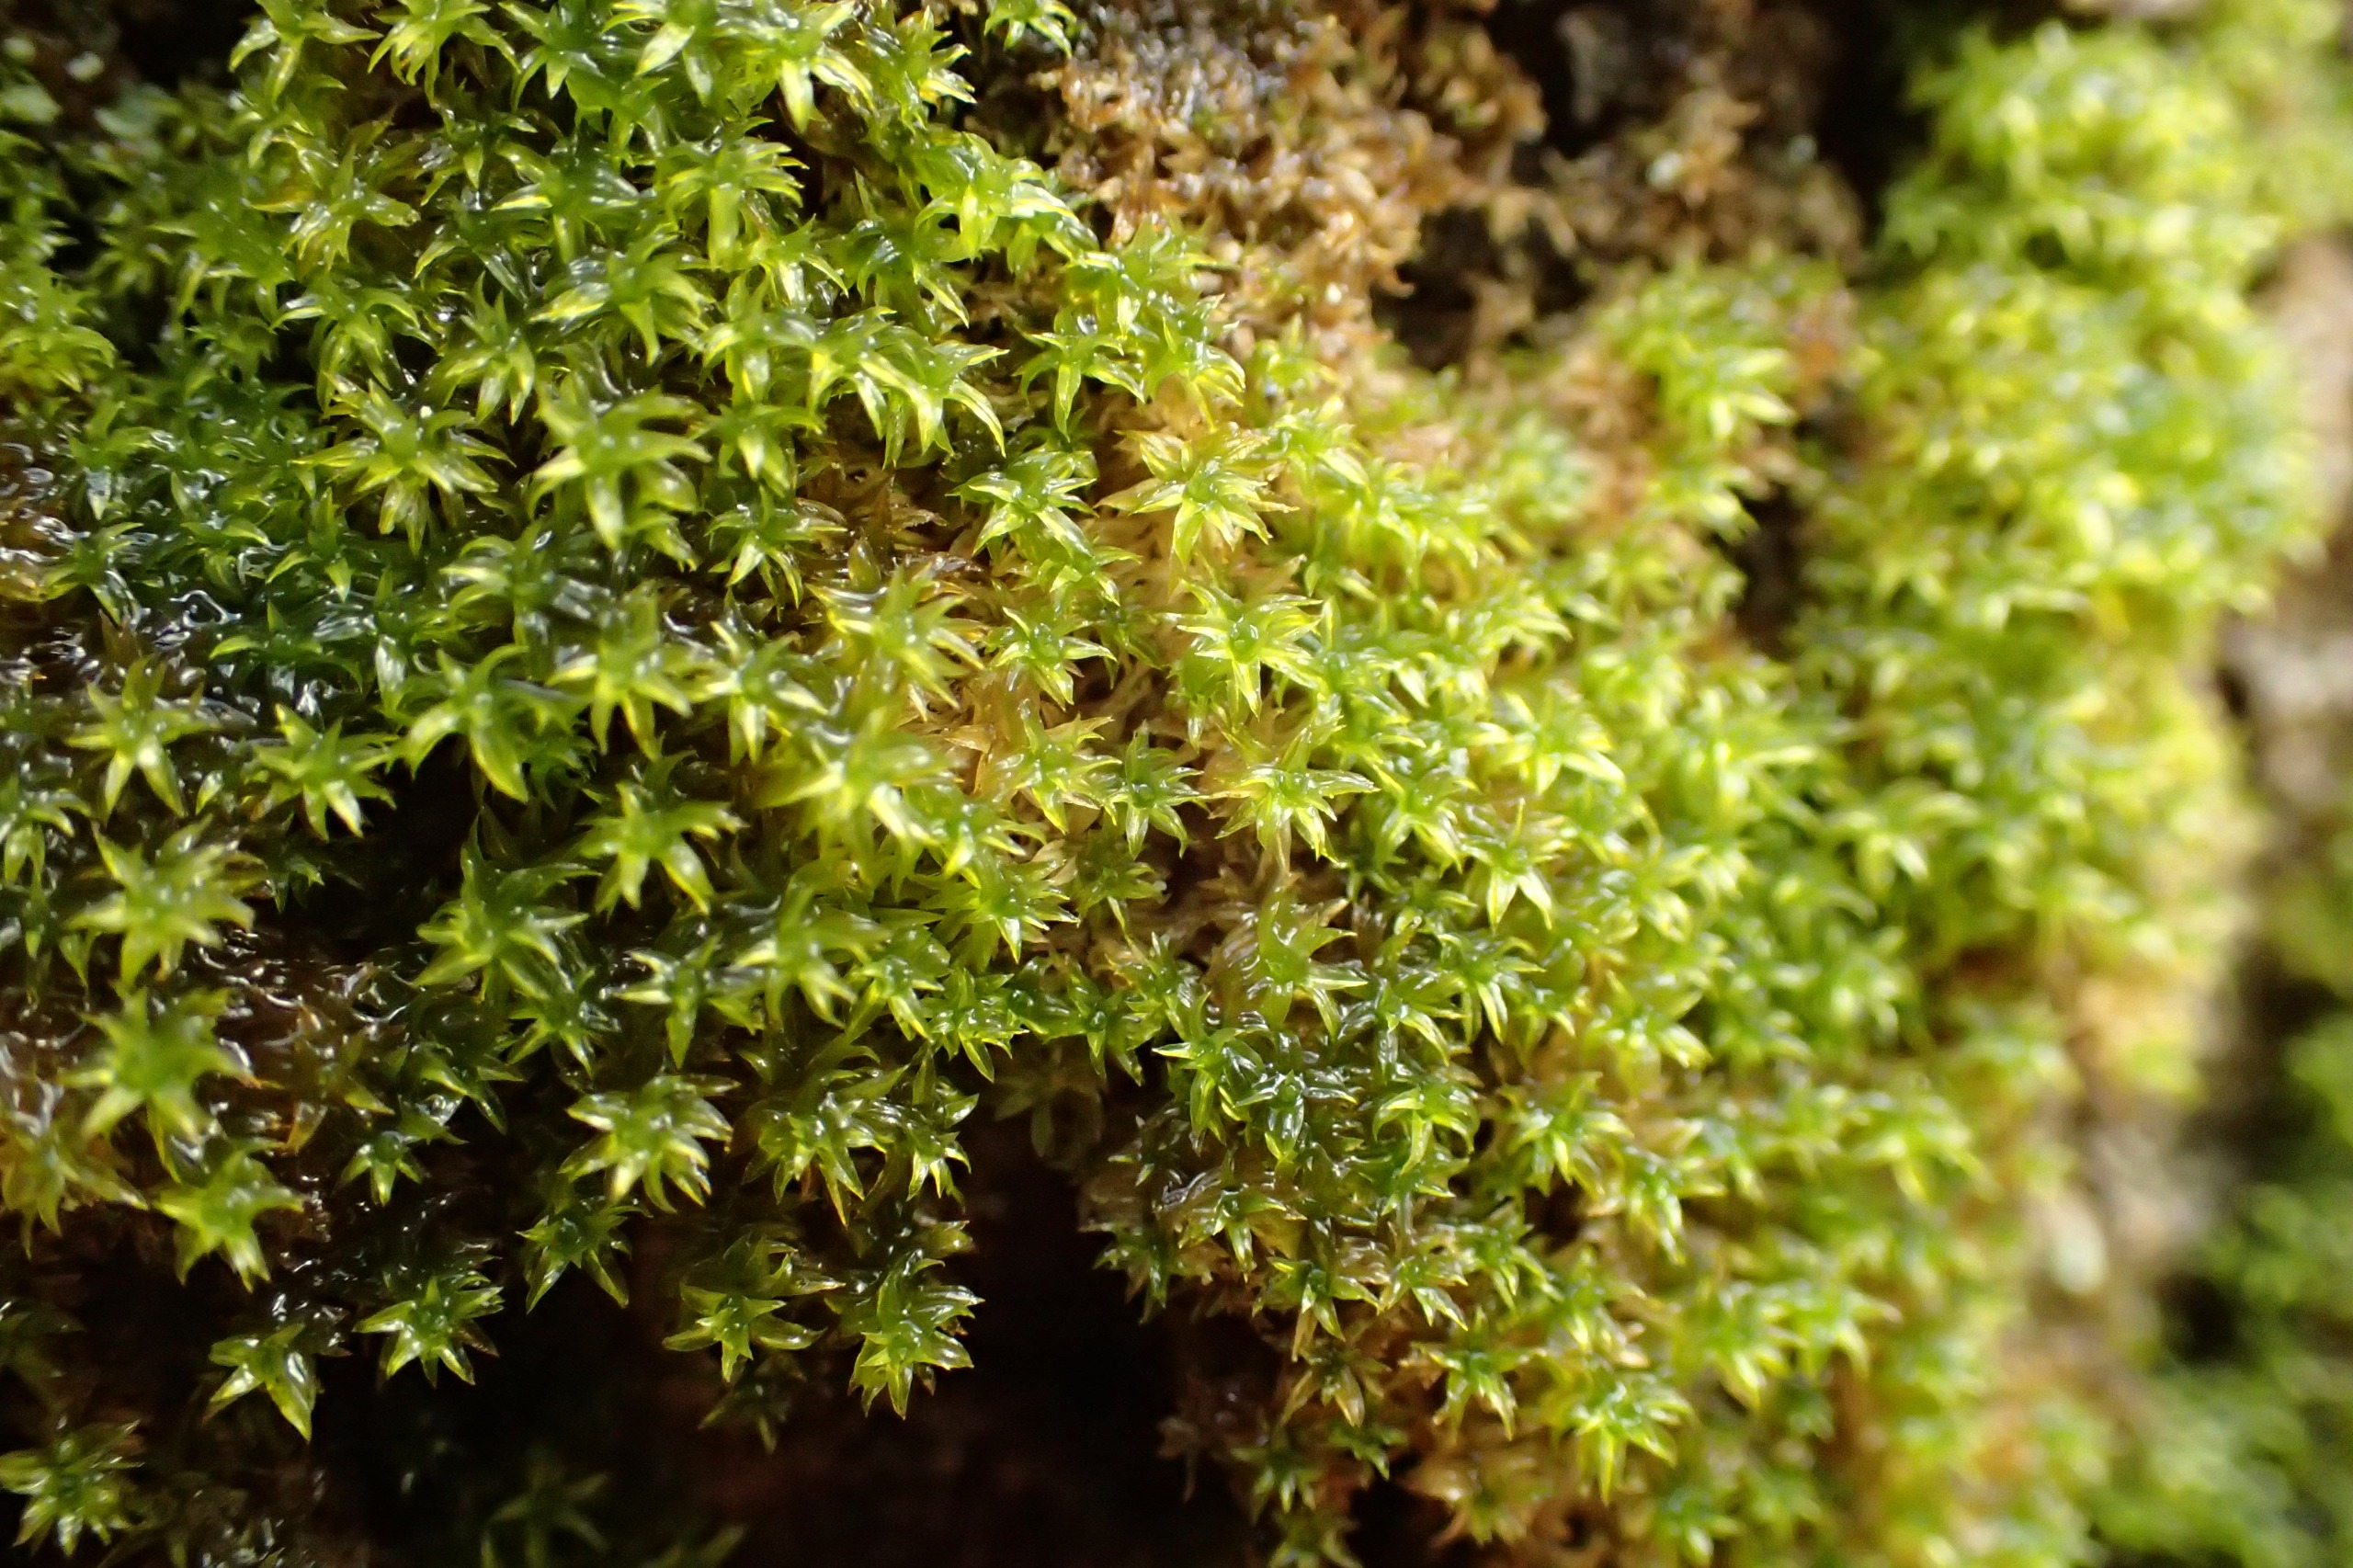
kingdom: Plantae
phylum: Bryophyta
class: Bryopsida
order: Orthotrichales
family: Orthotrichaceae
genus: Zygodon
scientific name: Zygodon viridissimus
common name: Grøn køllemos
